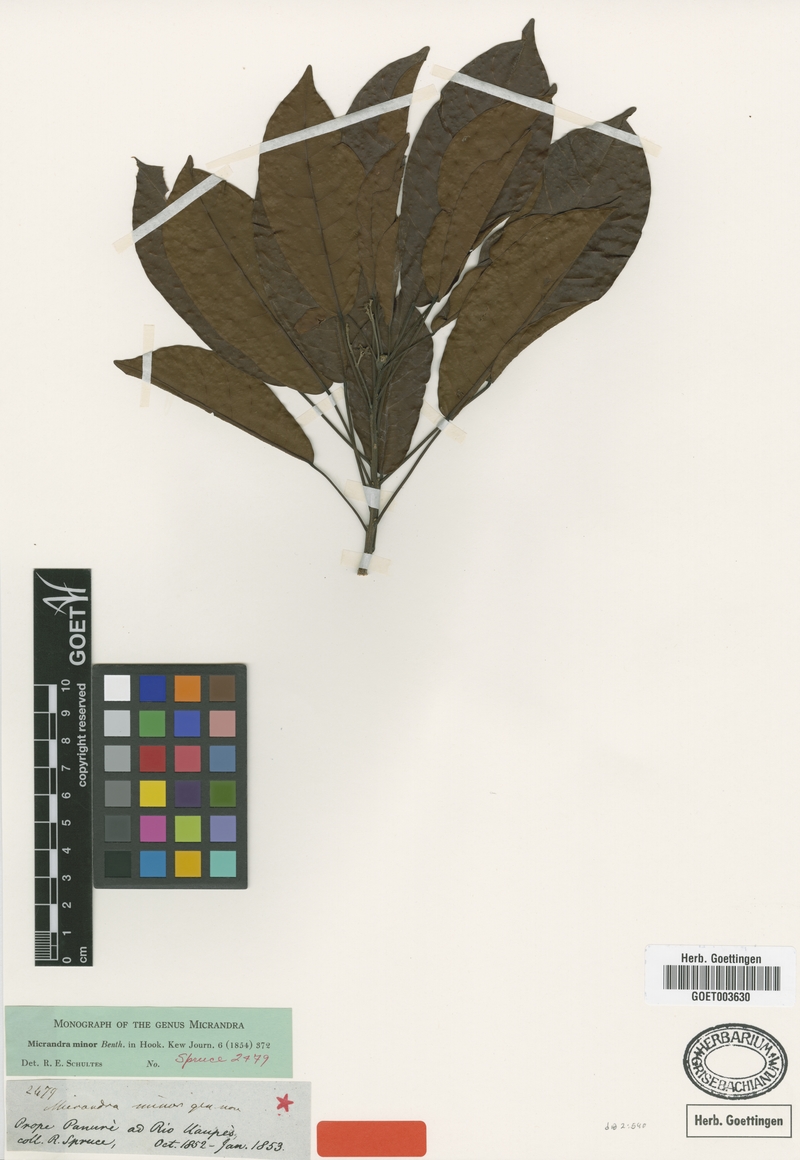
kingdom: Plantae
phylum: Tracheophyta
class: Magnoliopsida
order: Malpighiales
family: Euphorbiaceae
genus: Micrandra
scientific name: Micrandra minor
